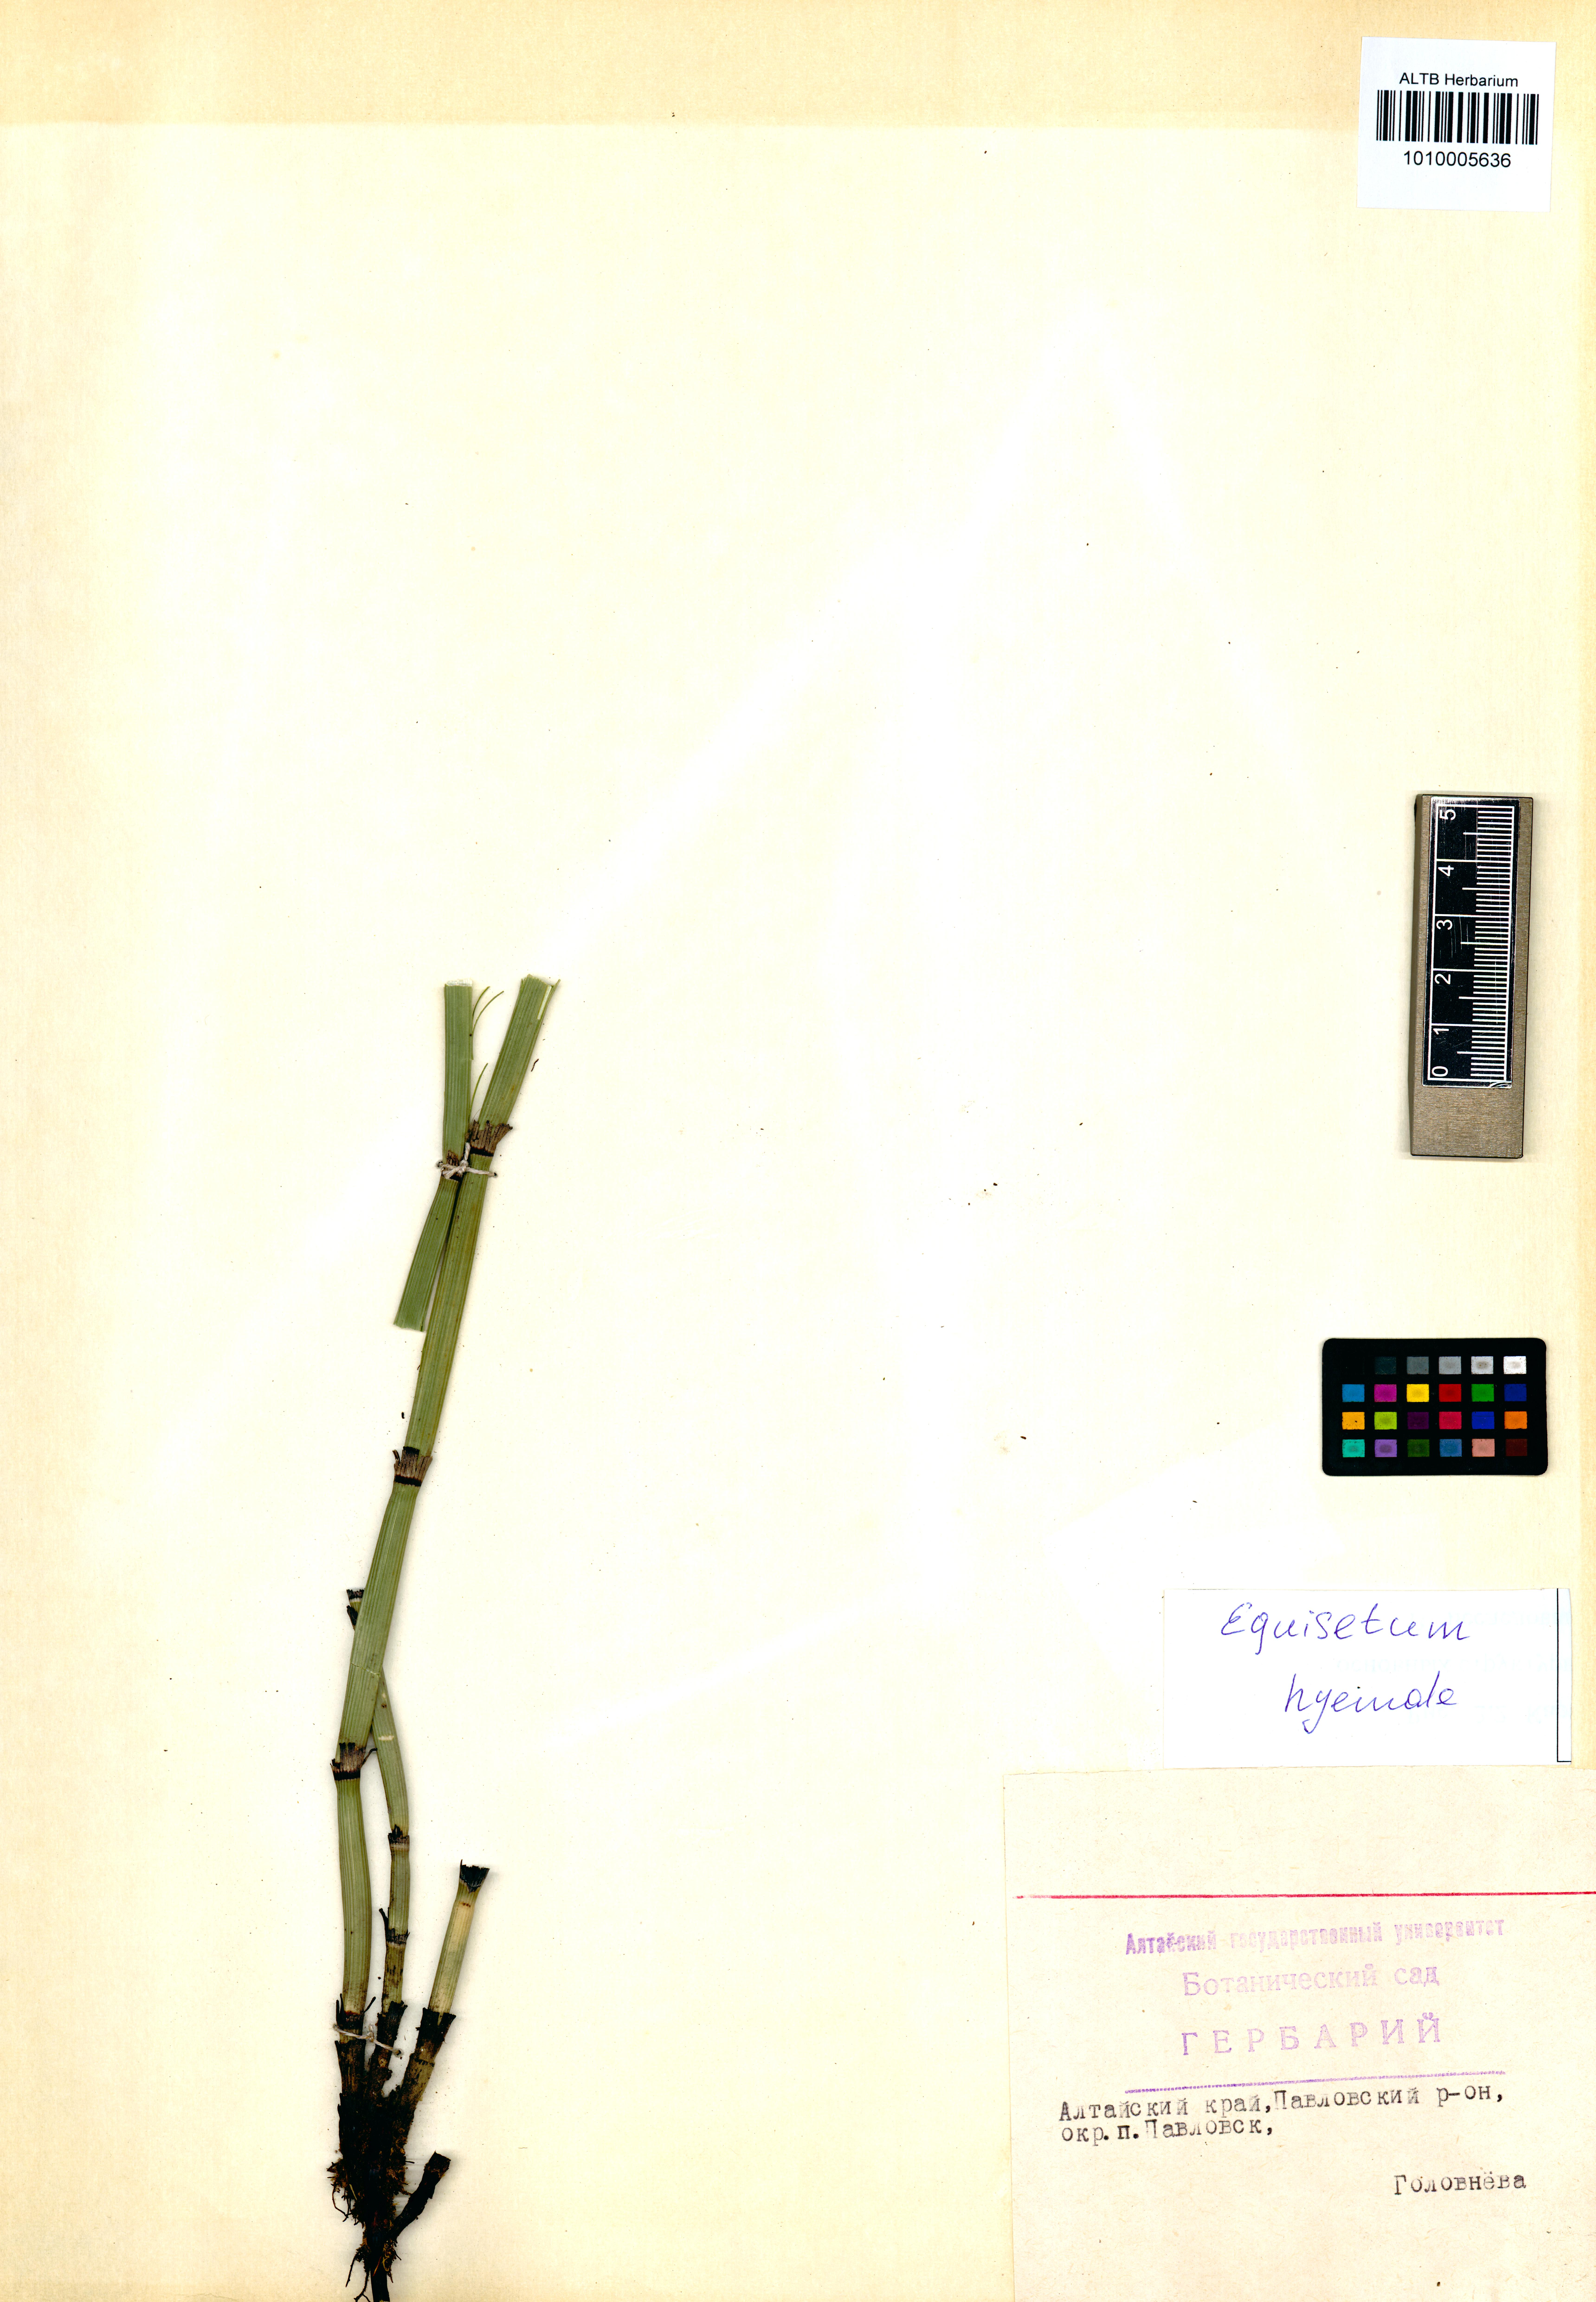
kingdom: Plantae
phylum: Tracheophyta
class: Polypodiopsida
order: Equisetales
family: Equisetaceae
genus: Equisetum
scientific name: Equisetum hyemale
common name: Rough horsetail
